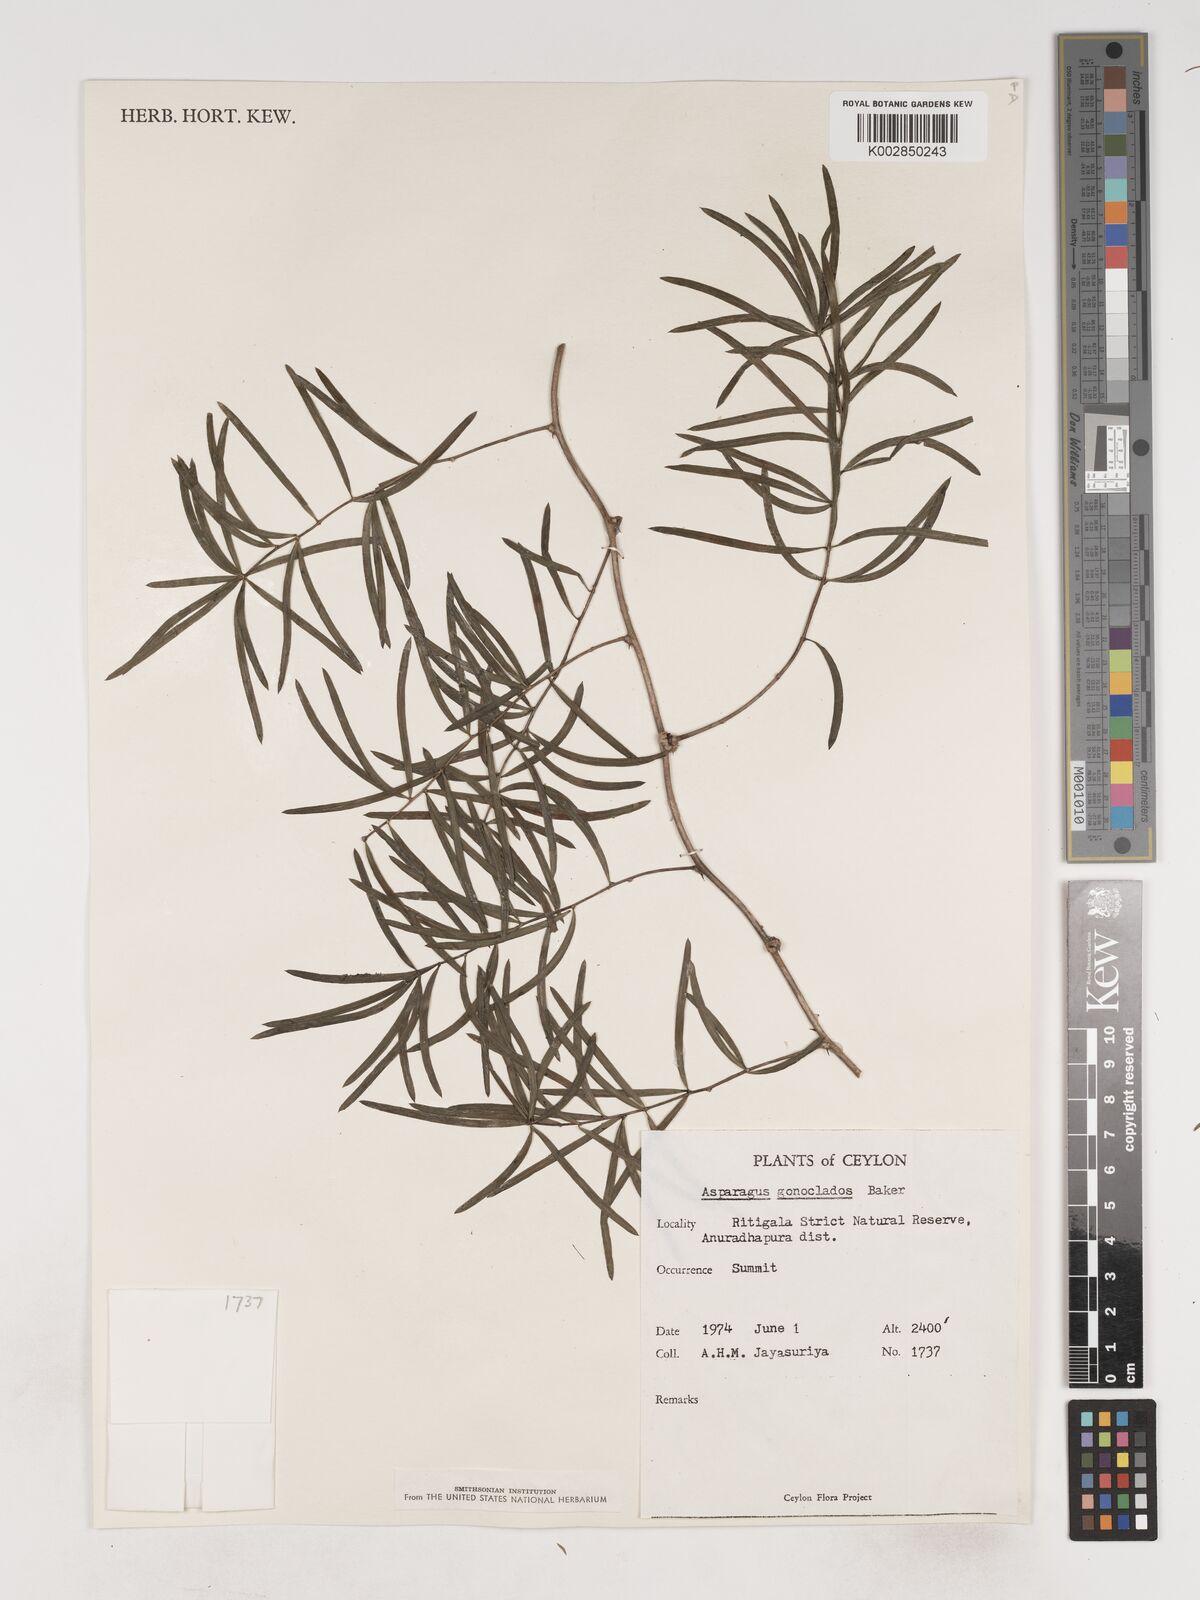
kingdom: Plantae
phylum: Tracheophyta
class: Liliopsida
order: Asparagales
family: Asparagaceae
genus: Asparagus
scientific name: Asparagus gonoclados
